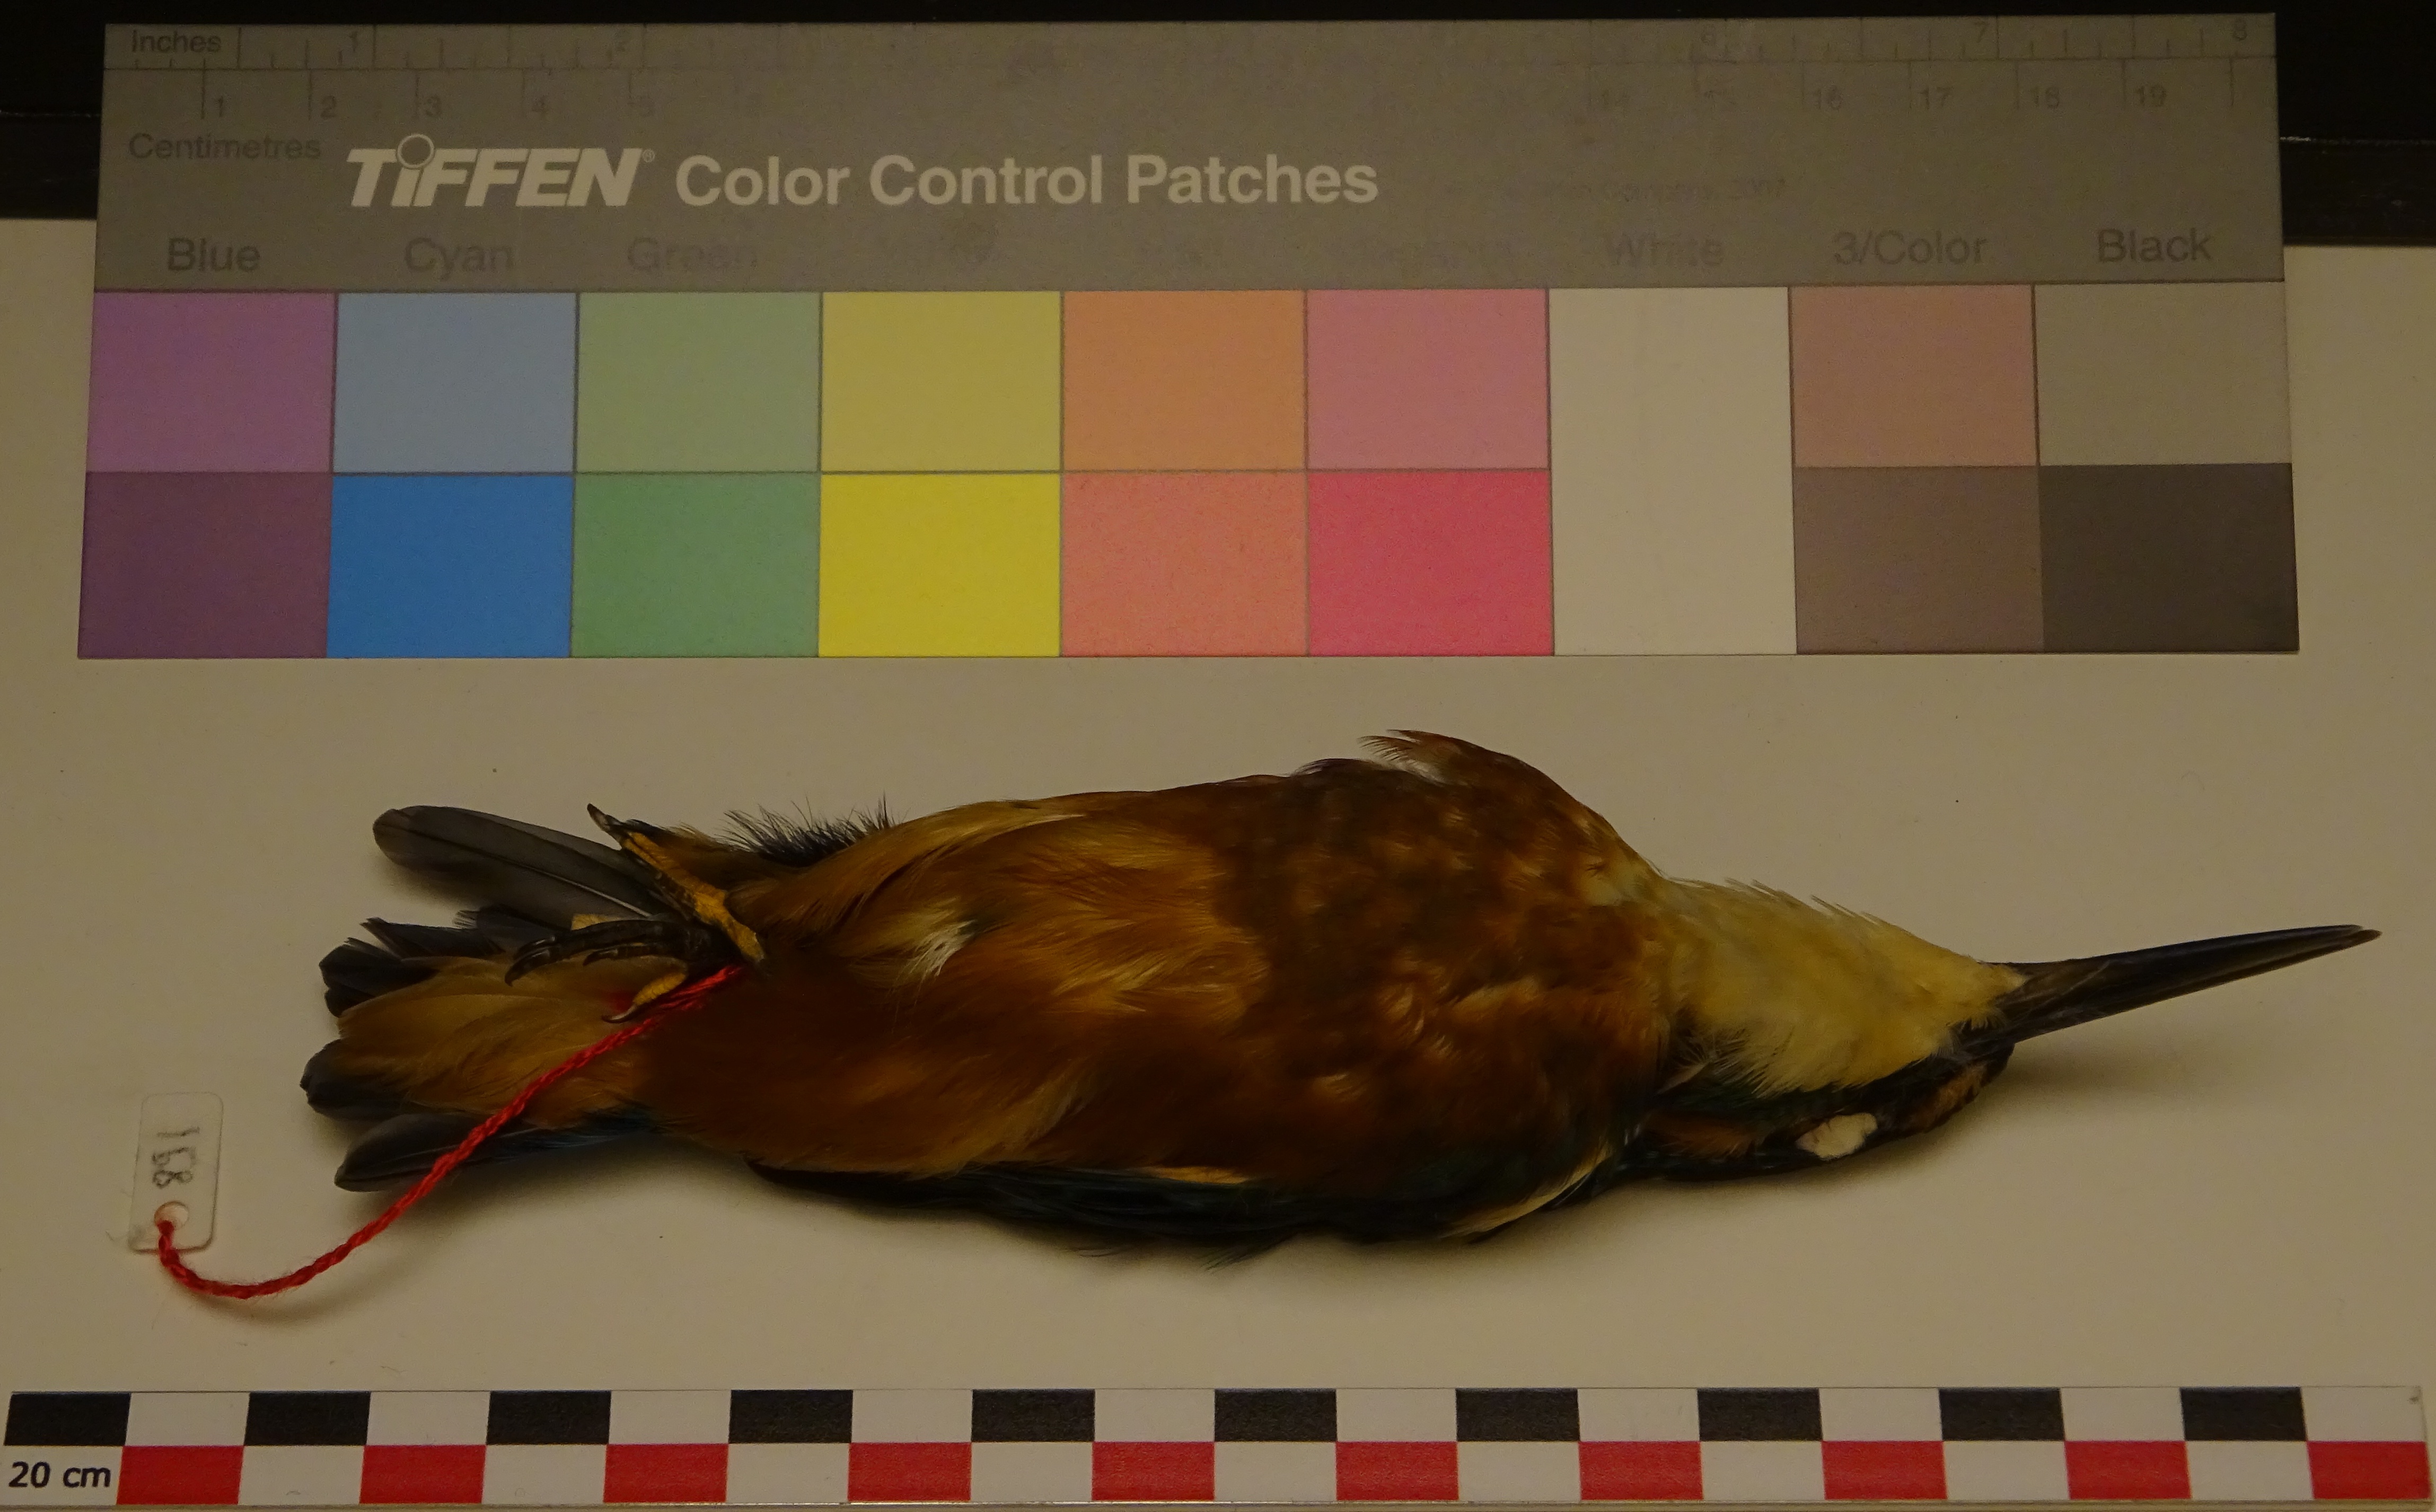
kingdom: Animalia
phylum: Chordata
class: Aves
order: Coraciiformes
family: Alcedinidae
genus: Alcedo
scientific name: Alcedo atthis
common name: Common kingfisher
